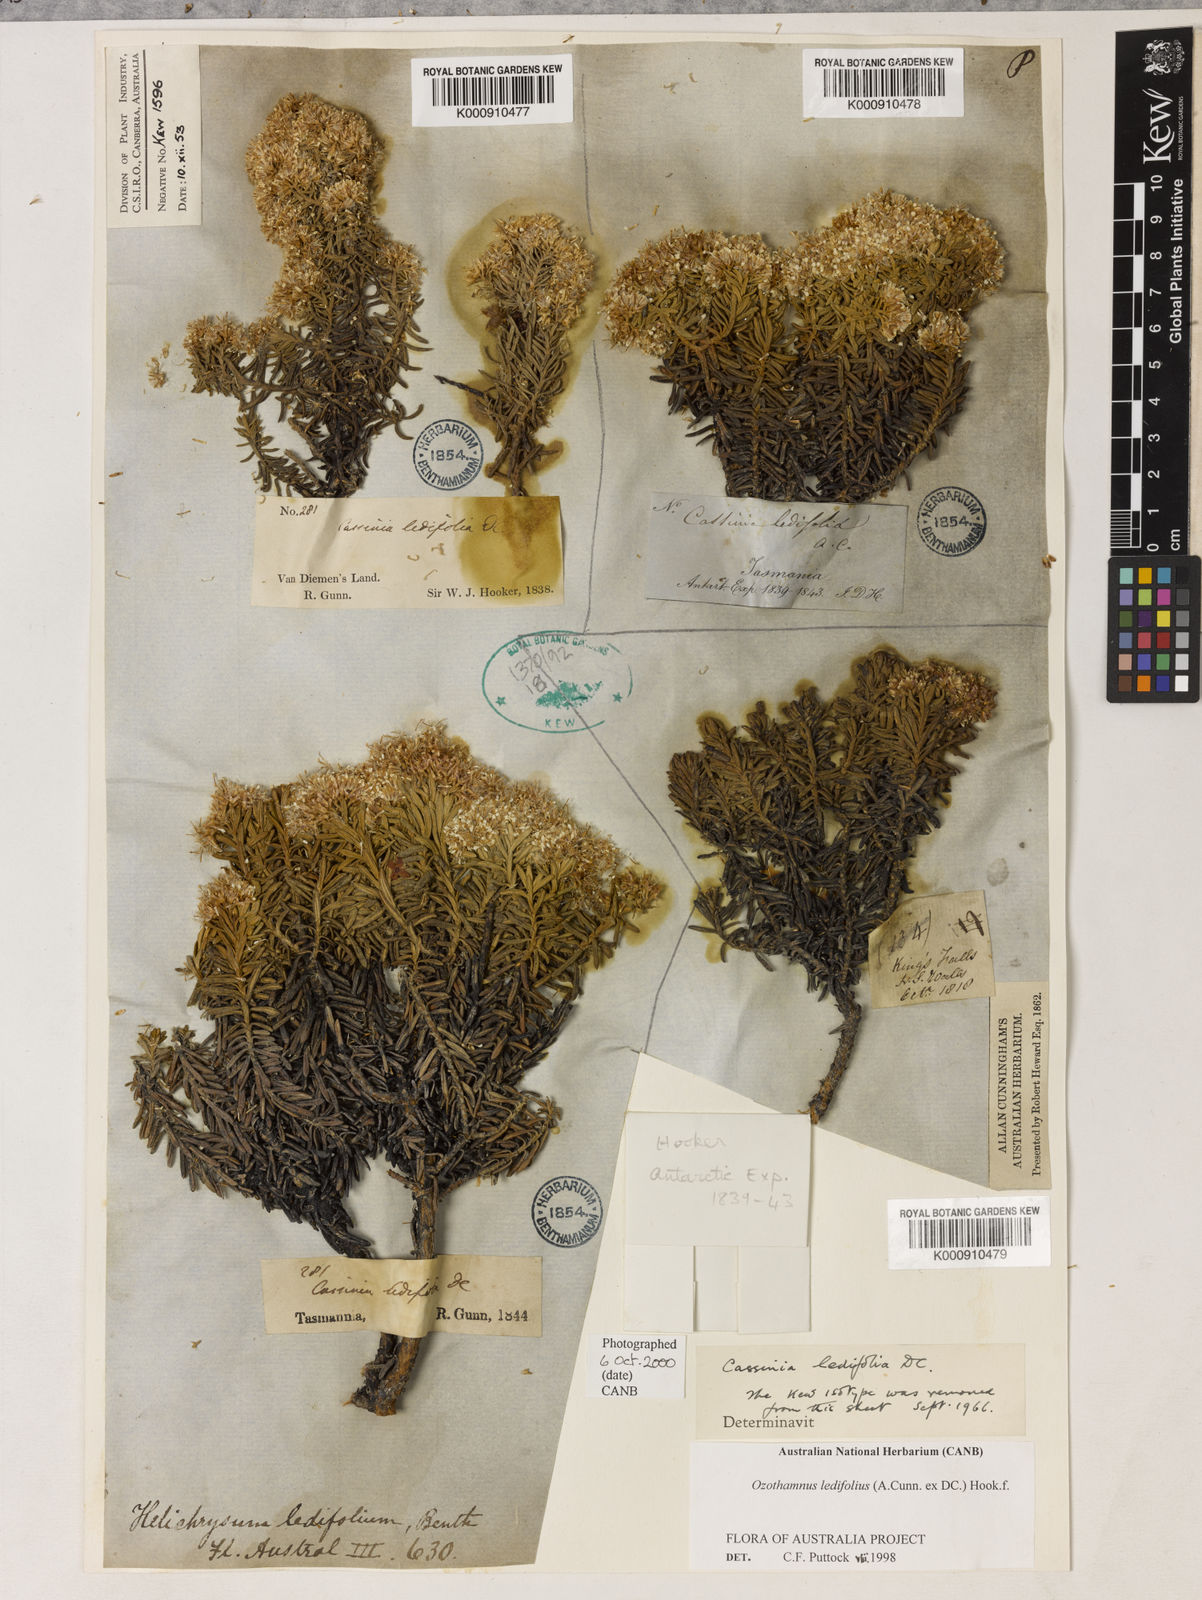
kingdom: Plantae
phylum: Tracheophyta
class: Magnoliopsida
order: Asterales
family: Asteraceae
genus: Ozothamnus
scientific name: Ozothamnus ledifolius
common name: Kerosene-weed
